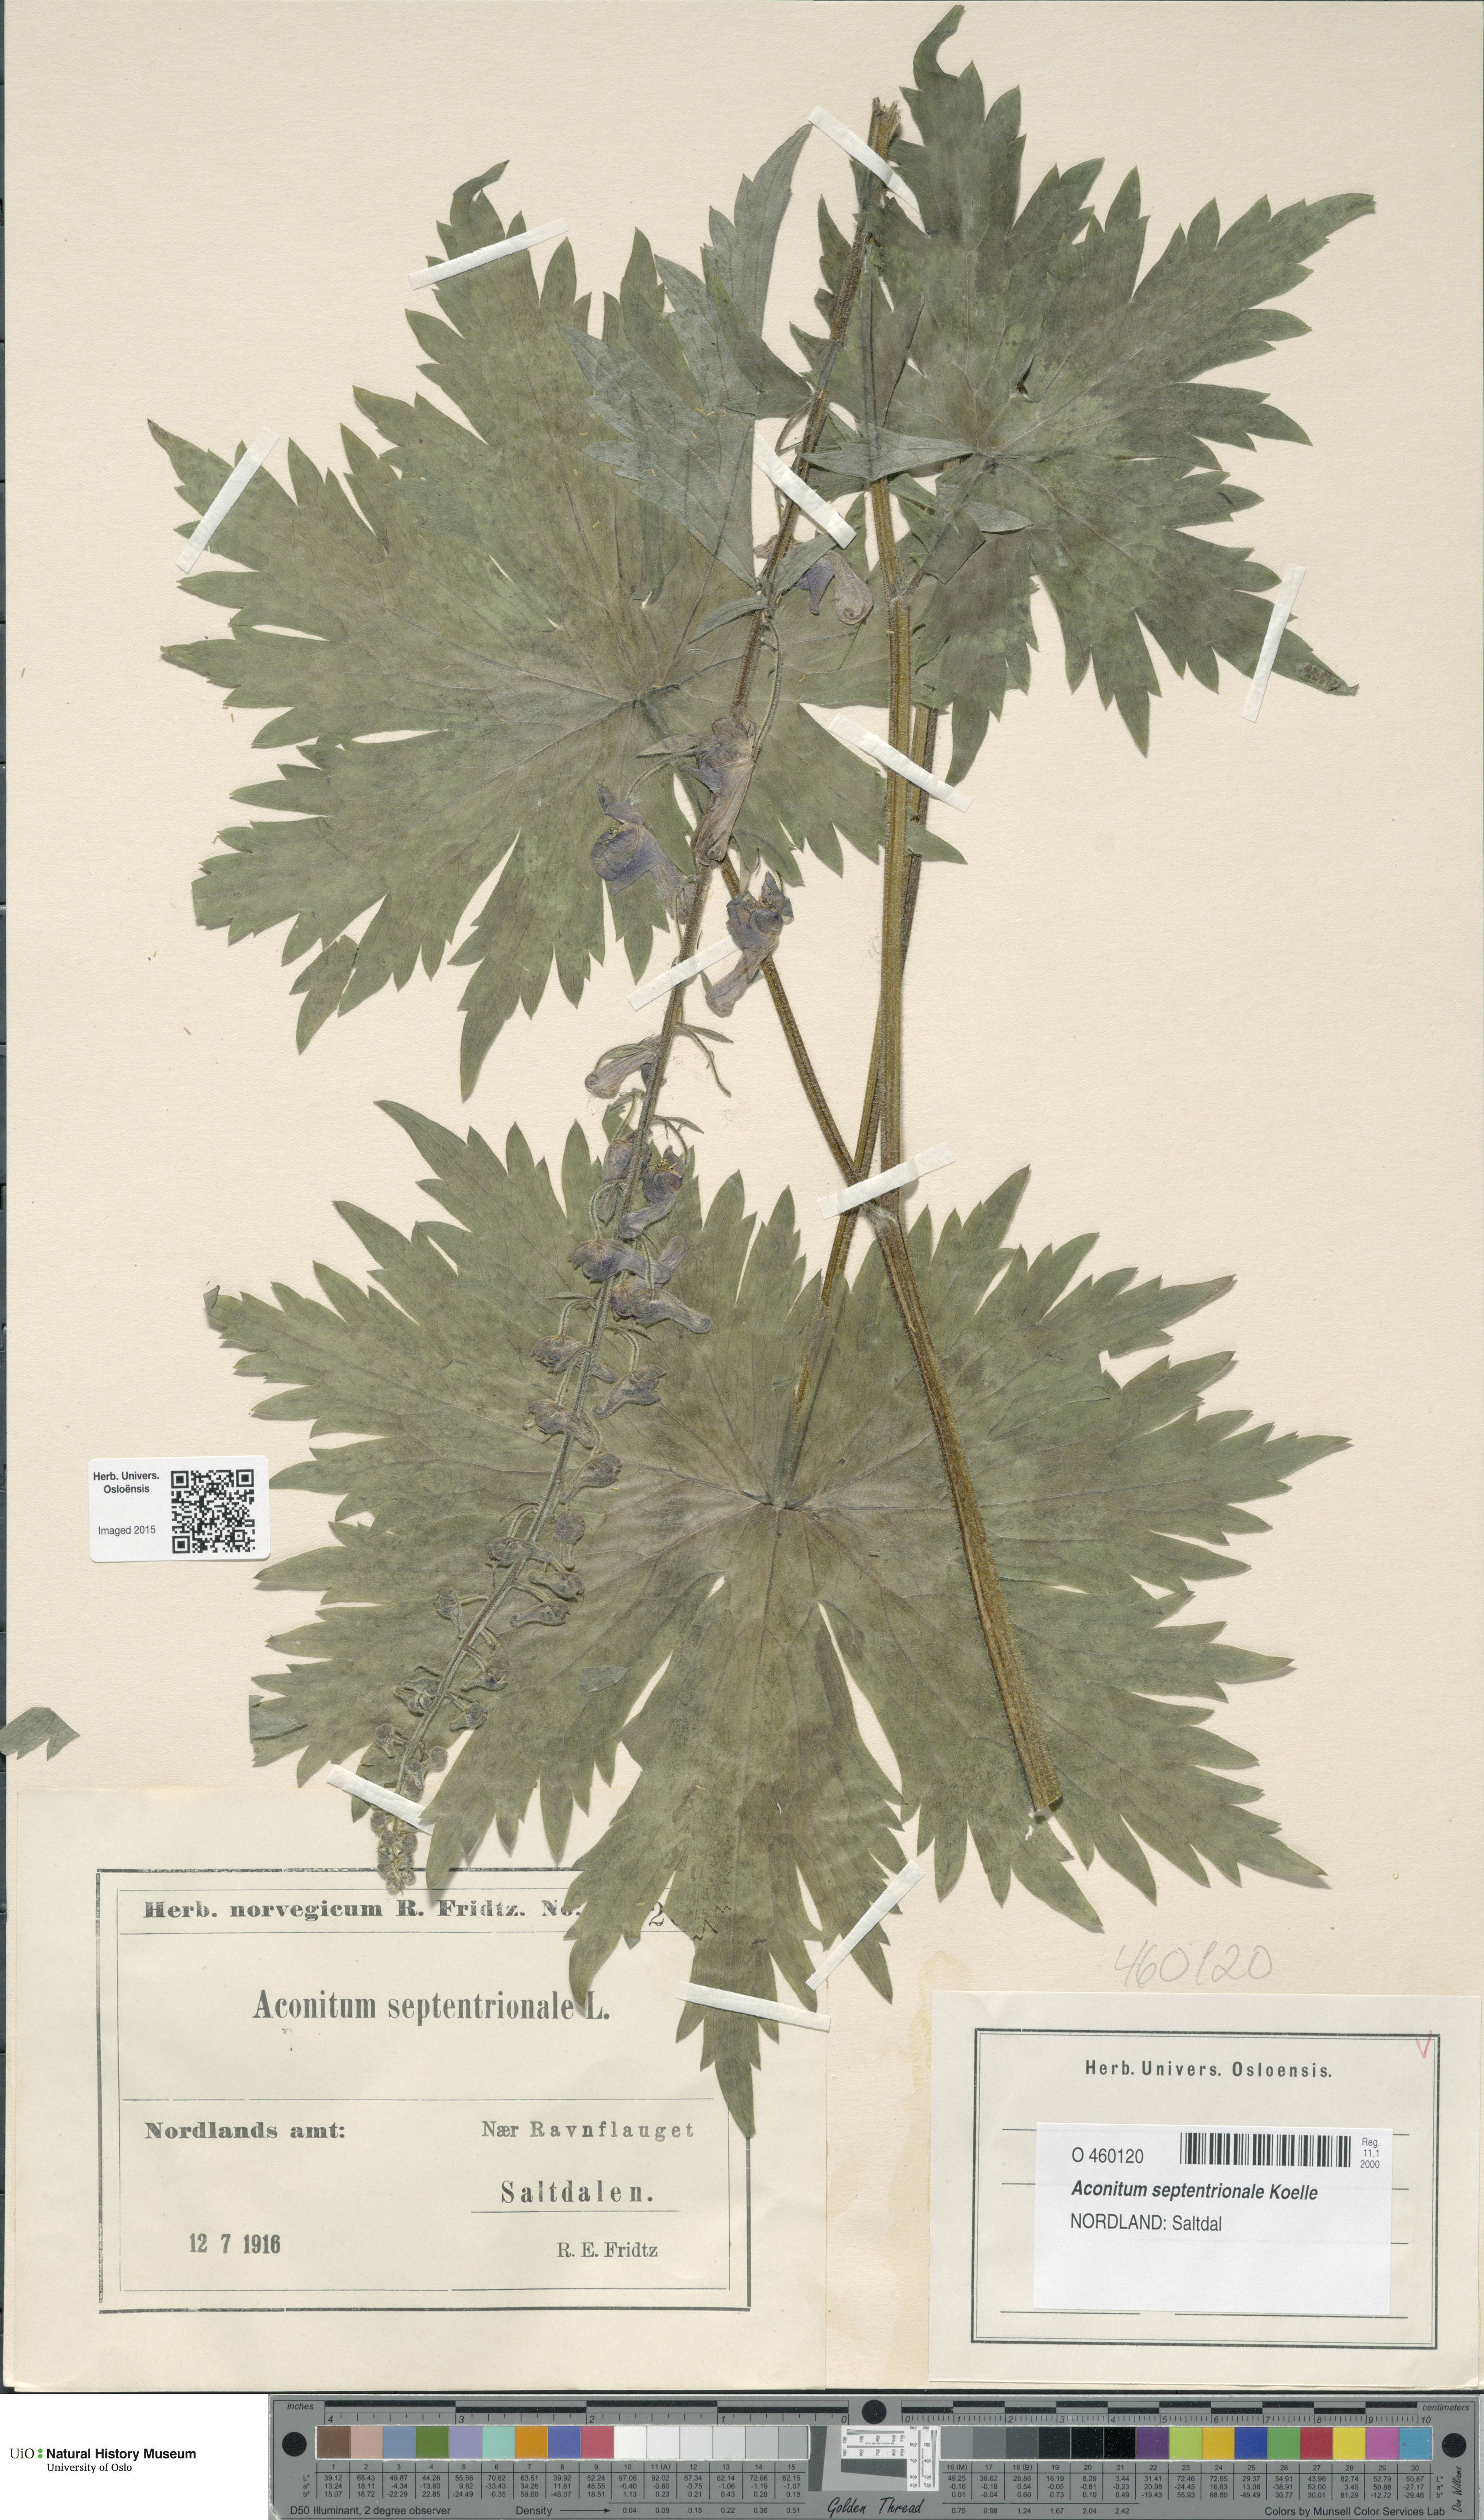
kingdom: Plantae
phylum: Tracheophyta
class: Magnoliopsida
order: Ranunculales
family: Ranunculaceae
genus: Aconitum
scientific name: Aconitum septentrionale
